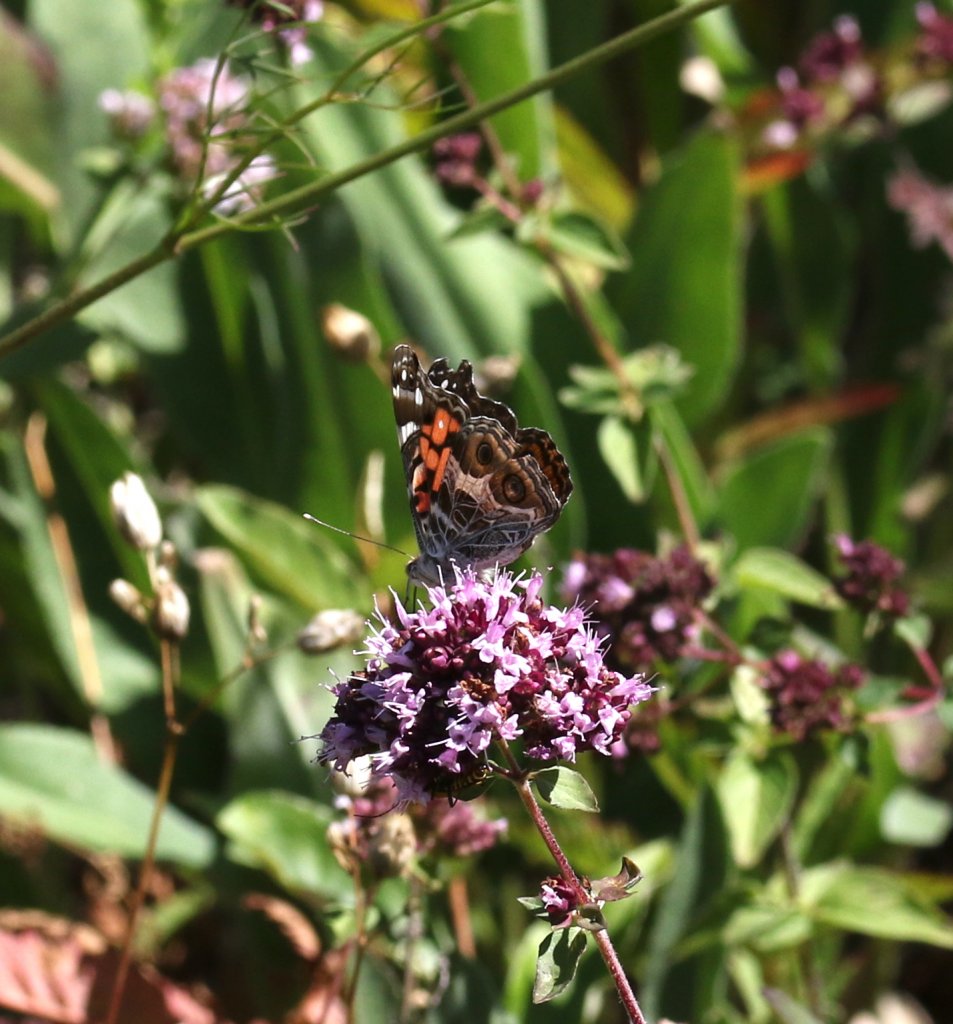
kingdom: Animalia
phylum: Arthropoda
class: Insecta
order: Lepidoptera
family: Nymphalidae
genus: Vanessa
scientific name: Vanessa virginiensis
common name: American Lady
